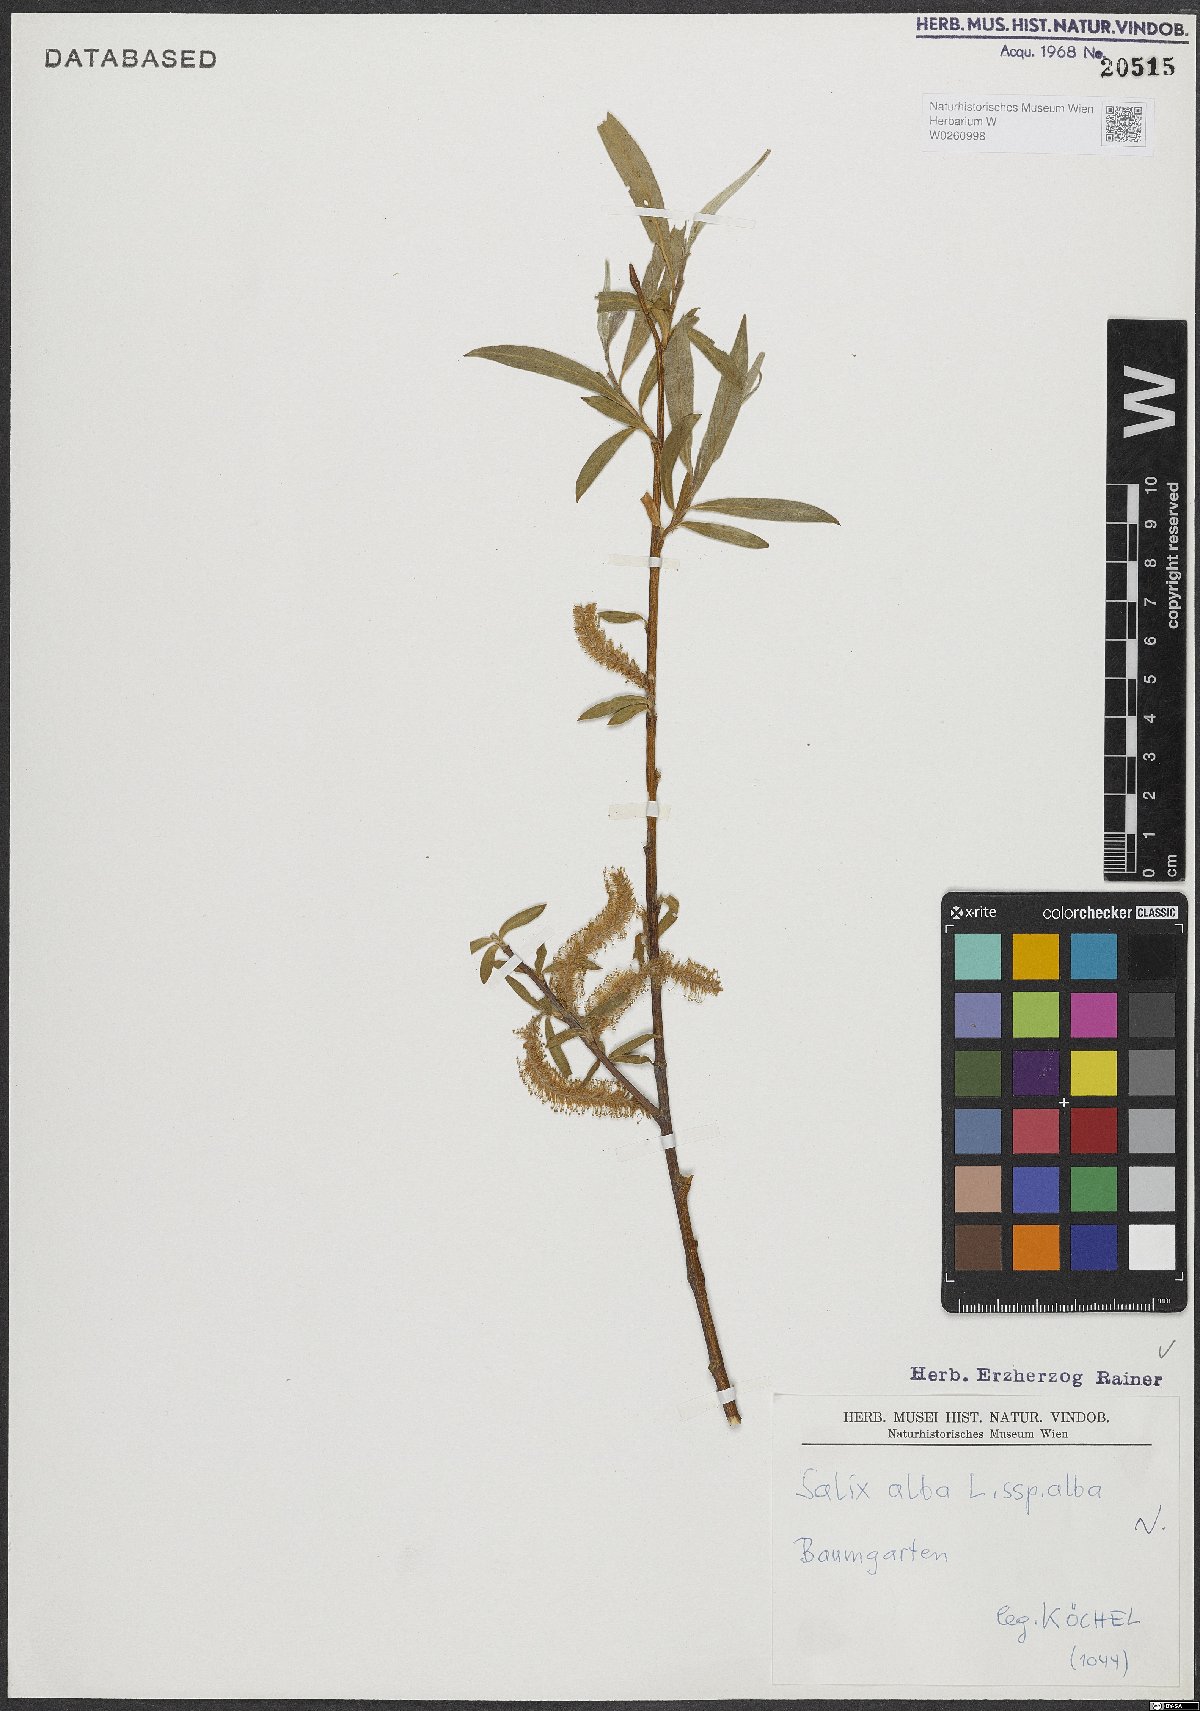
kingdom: Plantae
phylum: Tracheophyta
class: Magnoliopsida
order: Malpighiales
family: Salicaceae
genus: Salix
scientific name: Salix alba
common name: White willow
